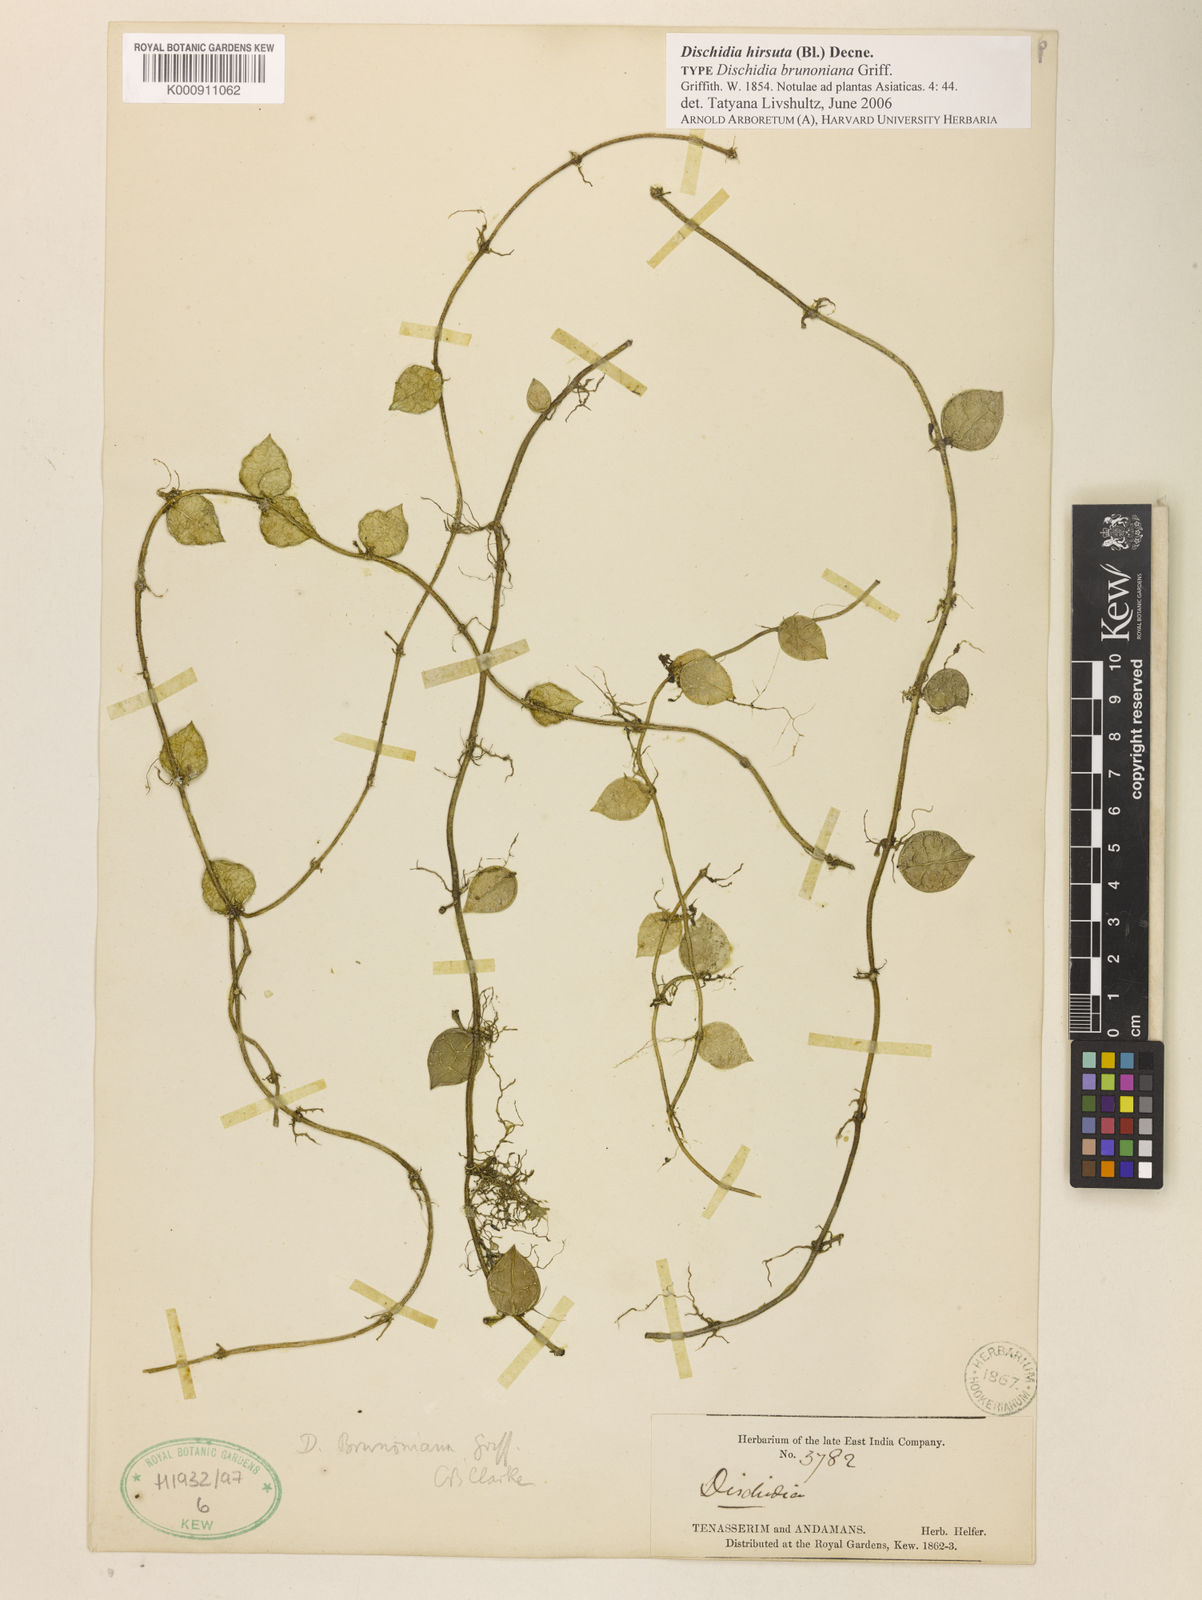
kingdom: Plantae
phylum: Tracheophyta
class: Magnoliopsida
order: Gentianales
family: Apocynaceae
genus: Dischidia
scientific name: Dischidia hirsuta
